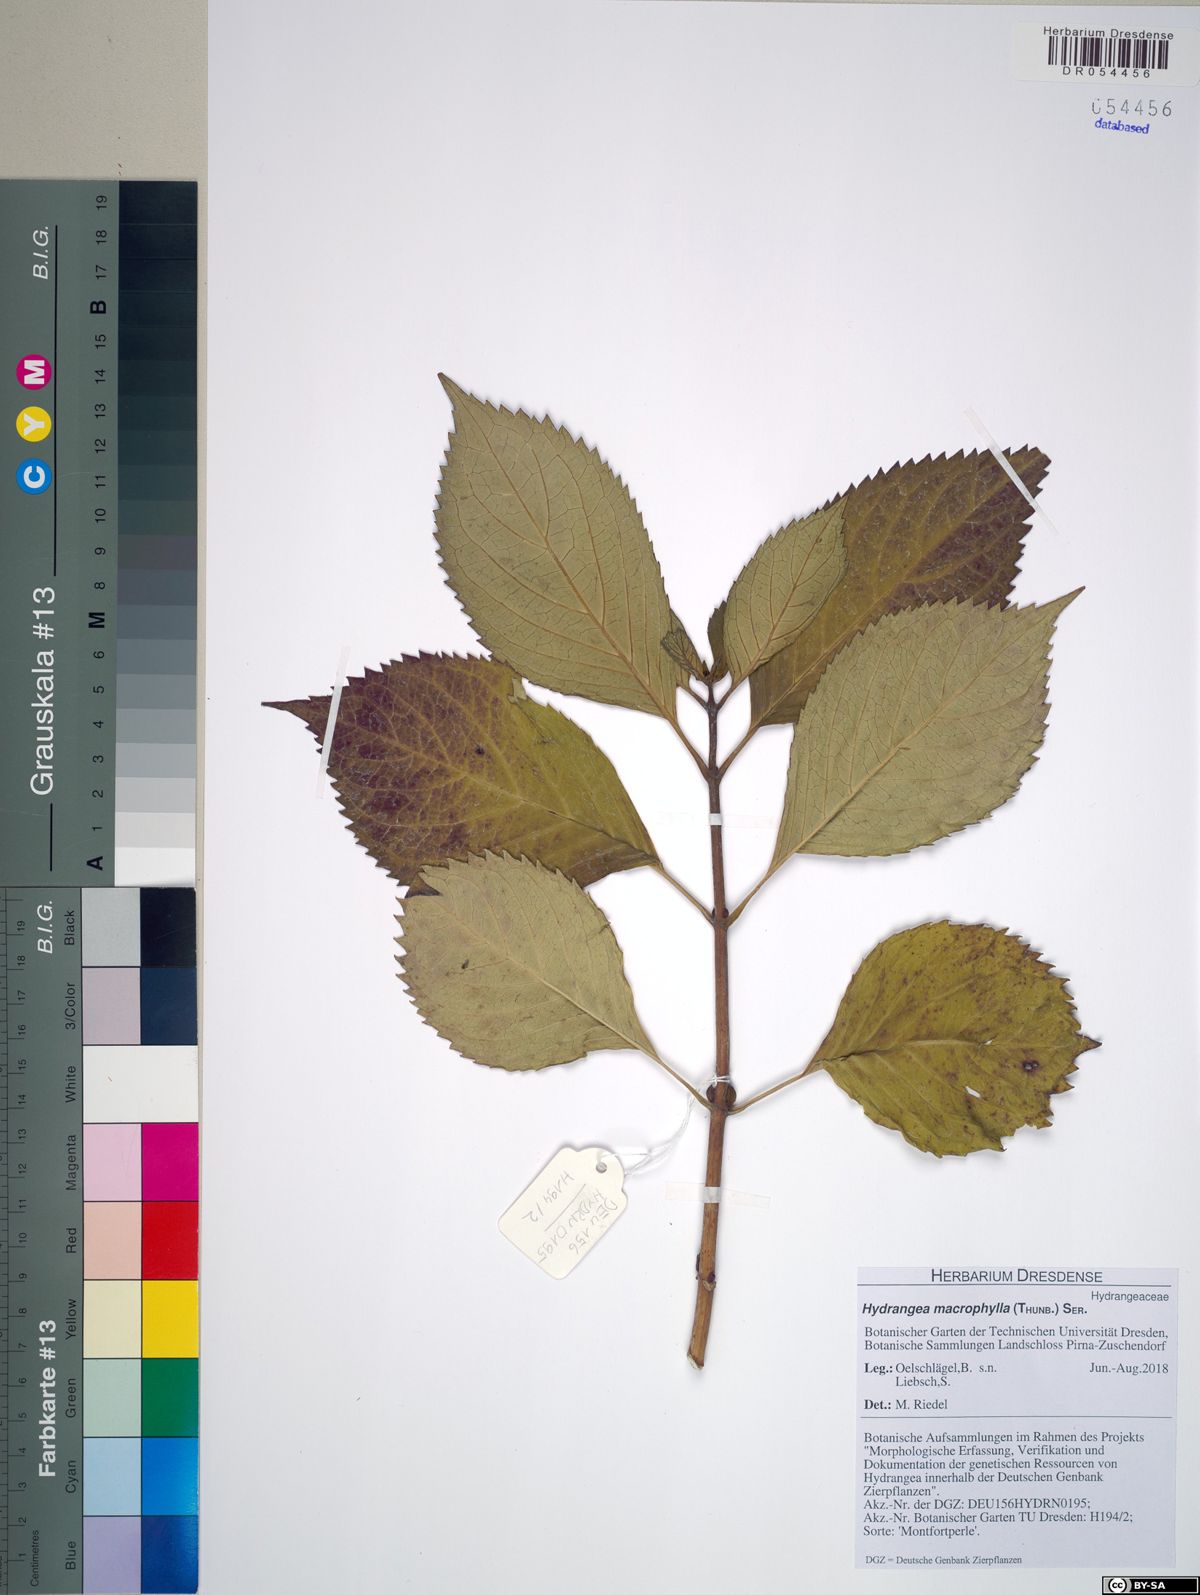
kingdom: Plantae
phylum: Tracheophyta
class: Magnoliopsida
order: Cornales
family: Hydrangeaceae
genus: Hydrangea
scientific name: Hydrangea macrophylla
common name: Hydrangea
